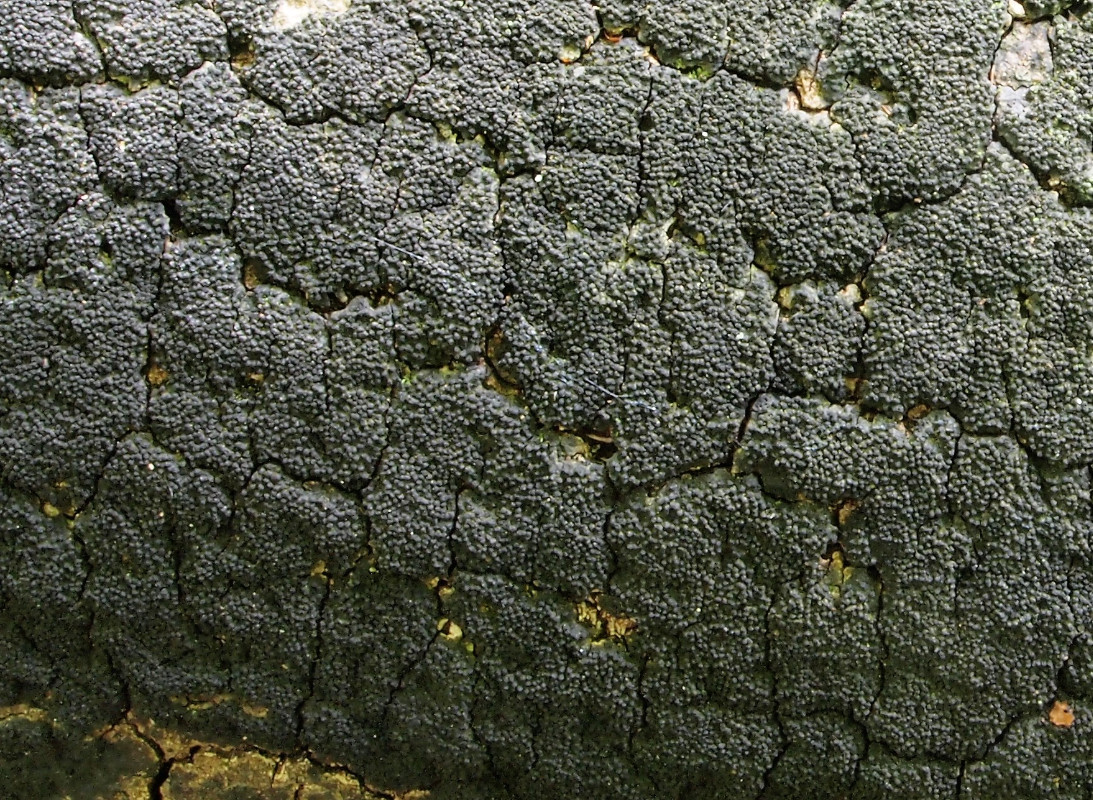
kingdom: Fungi
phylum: Ascomycota
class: Sordariomycetes
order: Xylariales
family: Diatrypaceae
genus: Eutypa
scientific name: Eutypa spinosa
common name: grov kulskorpe
